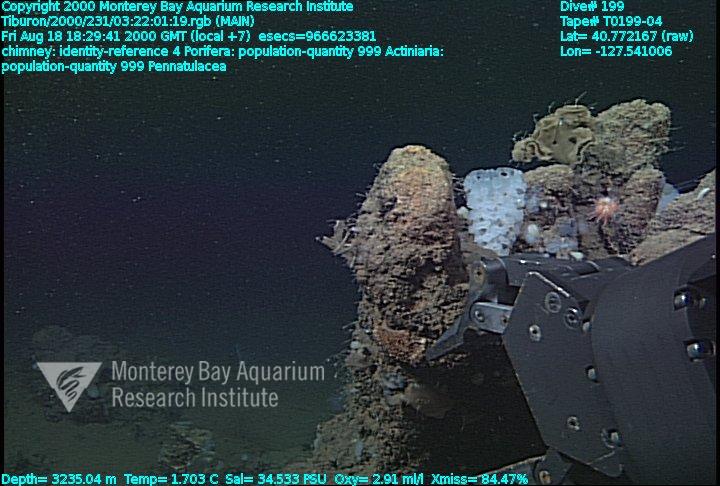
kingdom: Animalia
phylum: Porifera
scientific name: Porifera
